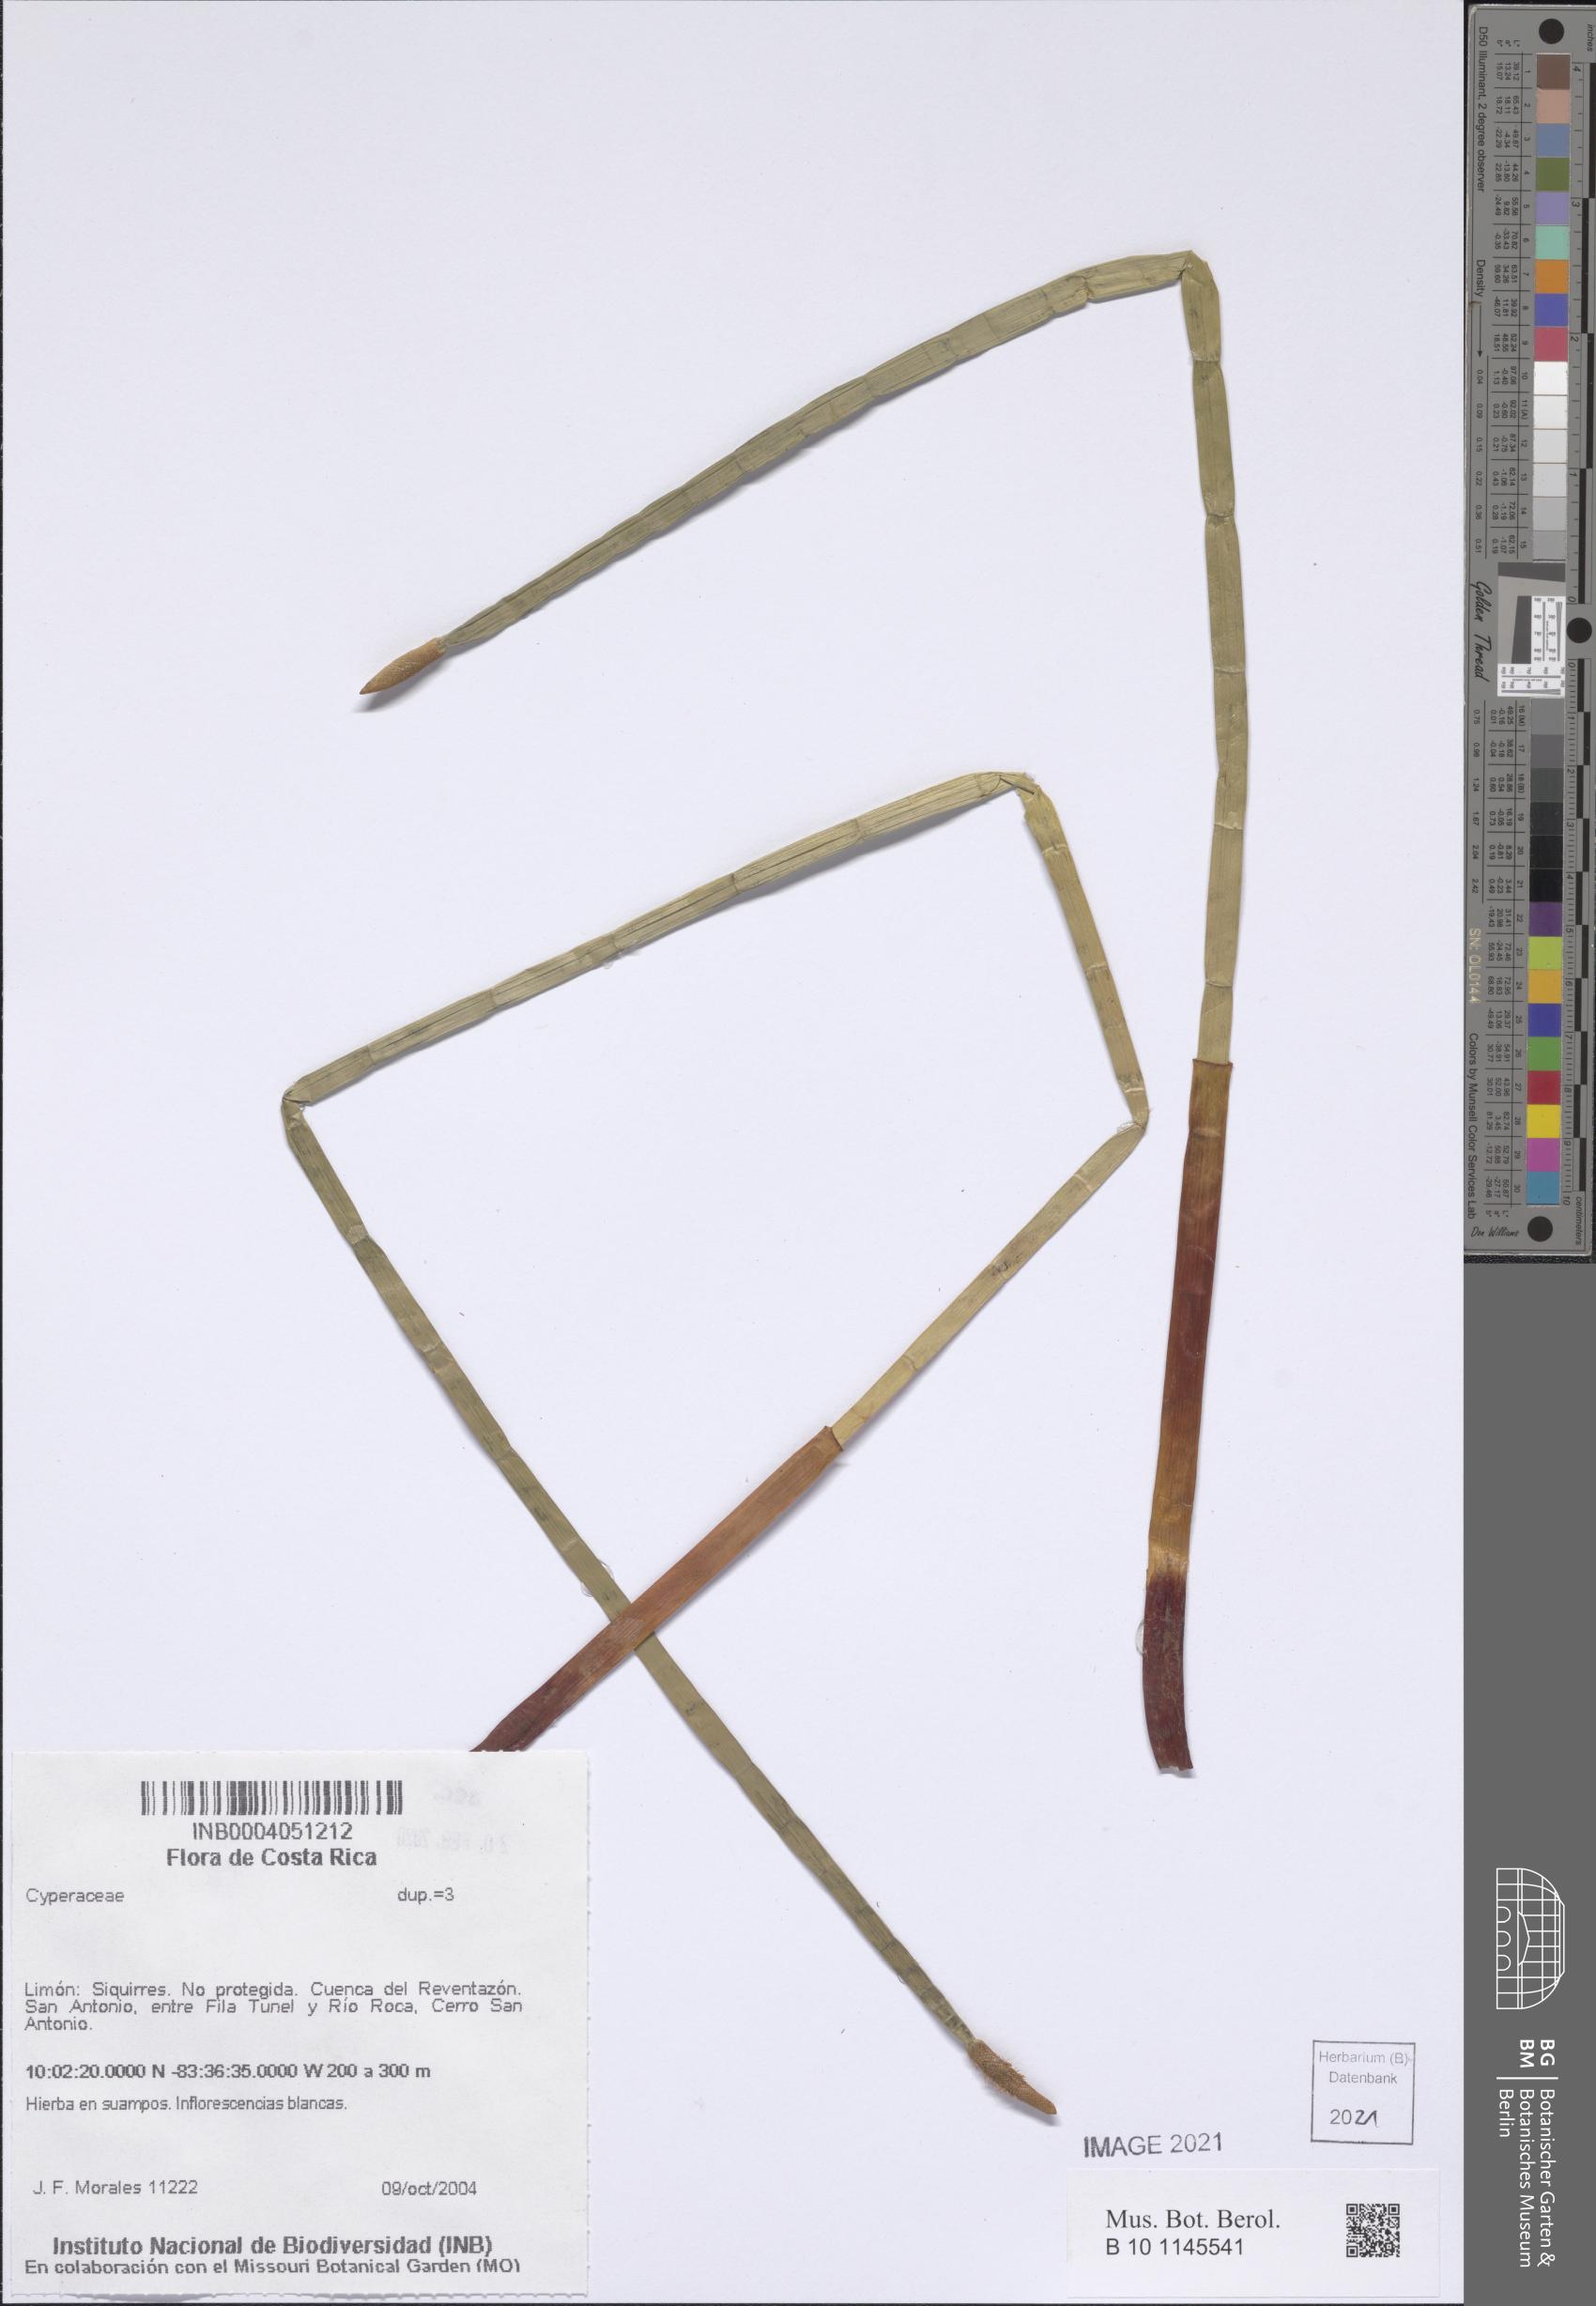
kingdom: Plantae
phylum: Tracheophyta
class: Liliopsida
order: Poales
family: Cyperaceae
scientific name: Cyperaceae
